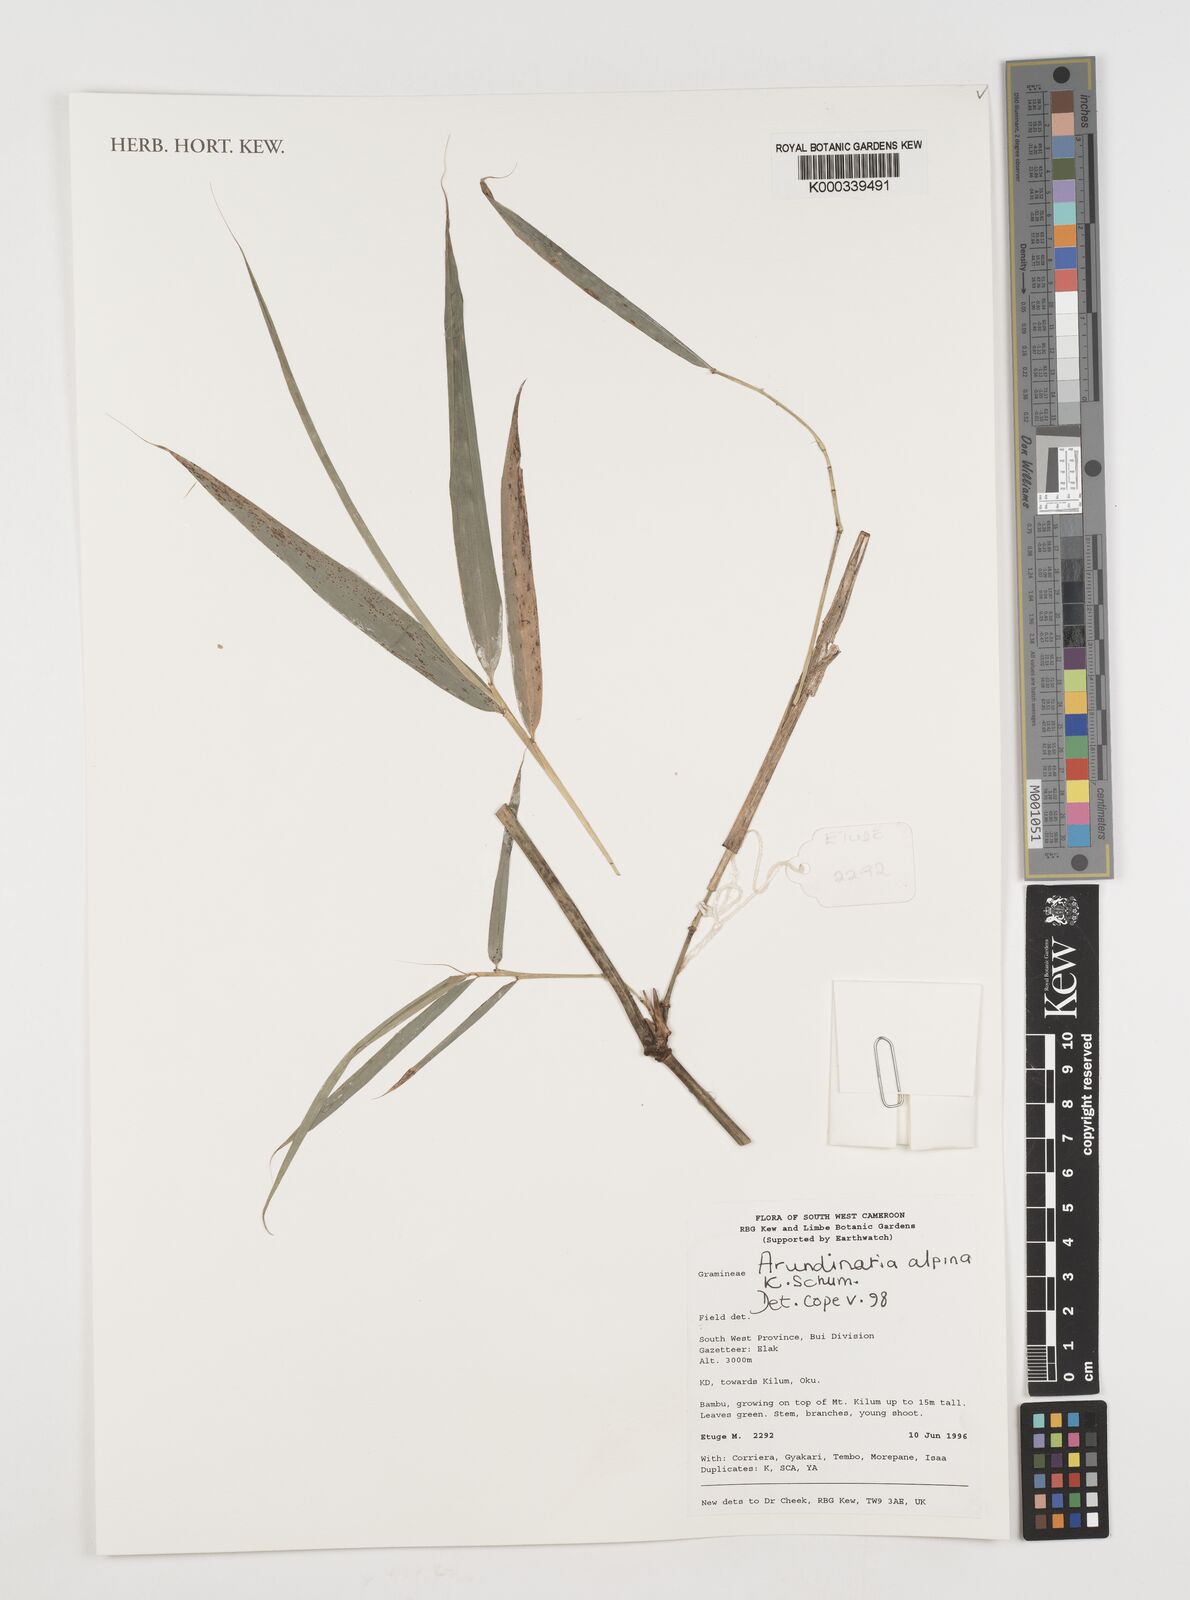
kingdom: Plantae
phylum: Tracheophyta
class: Liliopsida
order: Poales
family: Poaceae
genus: Oldeania
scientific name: Oldeania alpina
